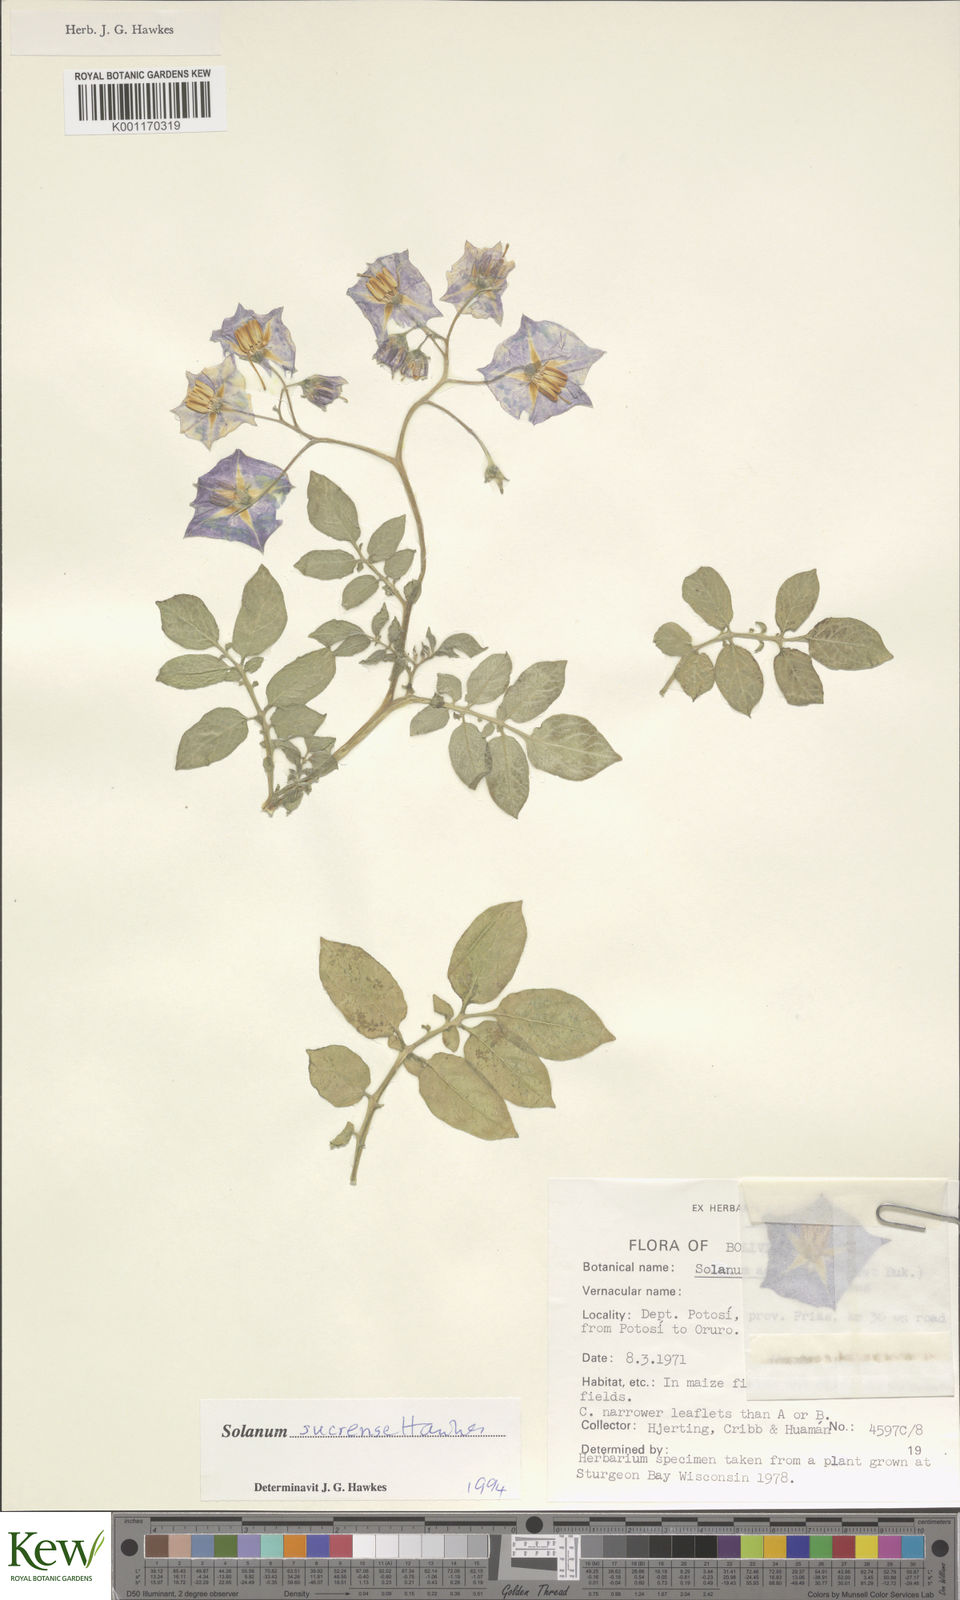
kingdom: Plantae
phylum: Tracheophyta
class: Magnoliopsida
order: Solanales
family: Solanaceae
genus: Solanum
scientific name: Solanum brevicaule
